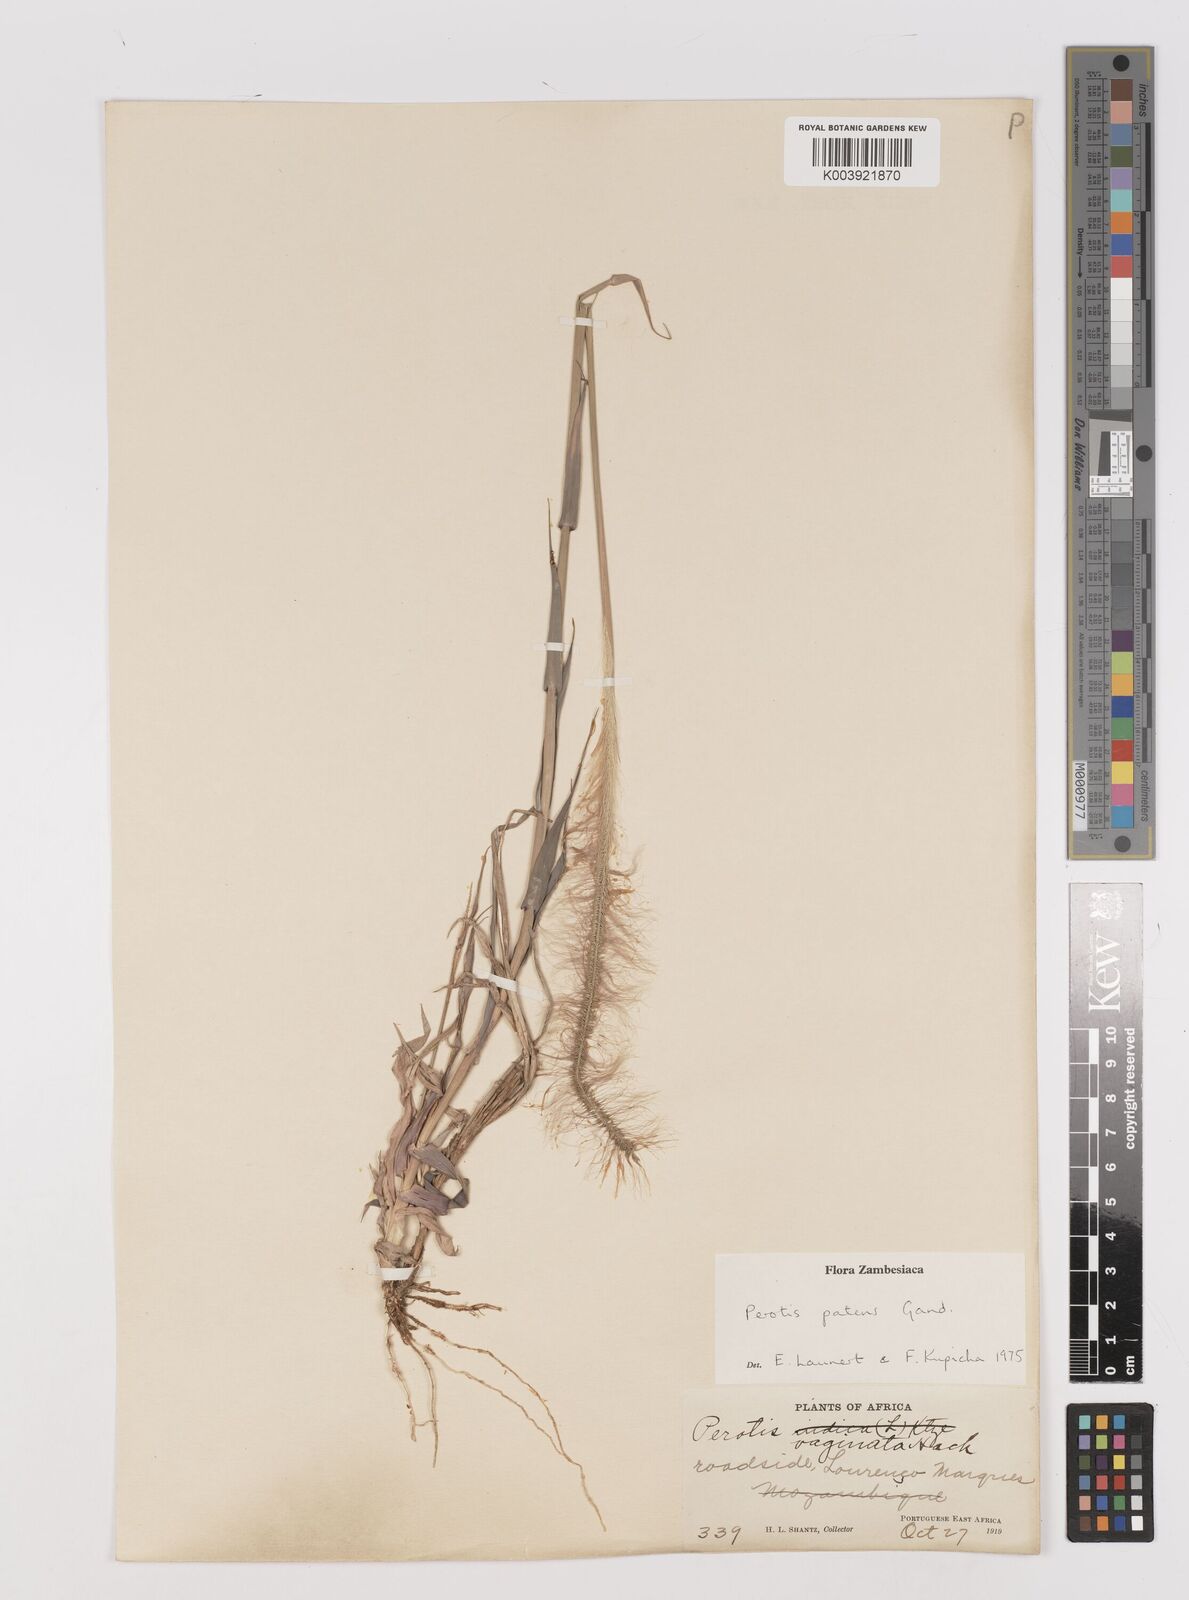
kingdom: Plantae
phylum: Tracheophyta
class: Liliopsida
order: Poales
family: Poaceae
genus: Perotis
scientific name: Perotis patens
